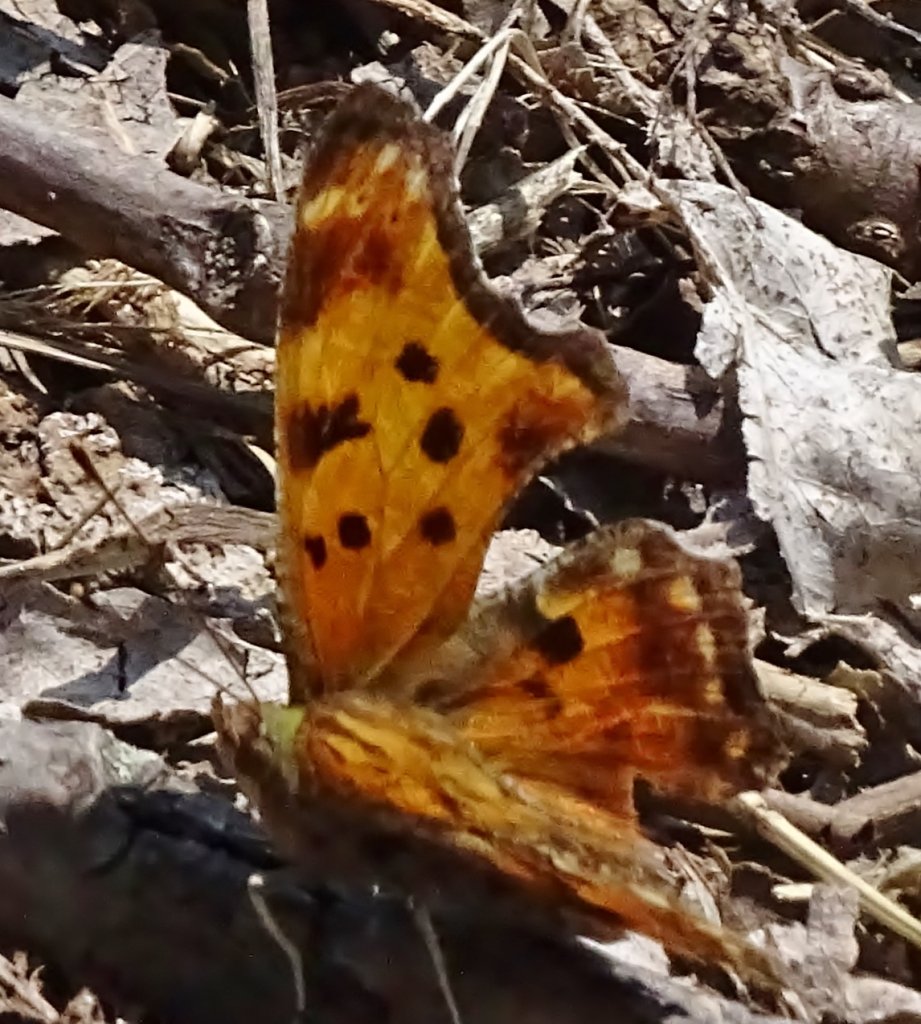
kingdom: Animalia
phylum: Arthropoda
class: Insecta
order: Lepidoptera
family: Nymphalidae
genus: Polygonia
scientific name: Polygonia comma
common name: Eastern Comma
